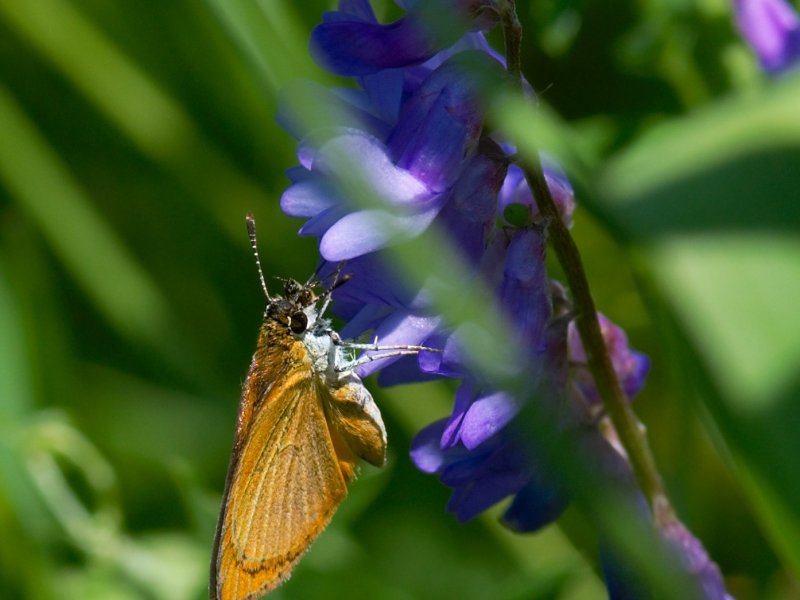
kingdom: Animalia
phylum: Arthropoda
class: Insecta
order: Lepidoptera
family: Hesperiidae
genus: Ancyloxypha
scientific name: Ancyloxypha numitor
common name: Least Skipper
